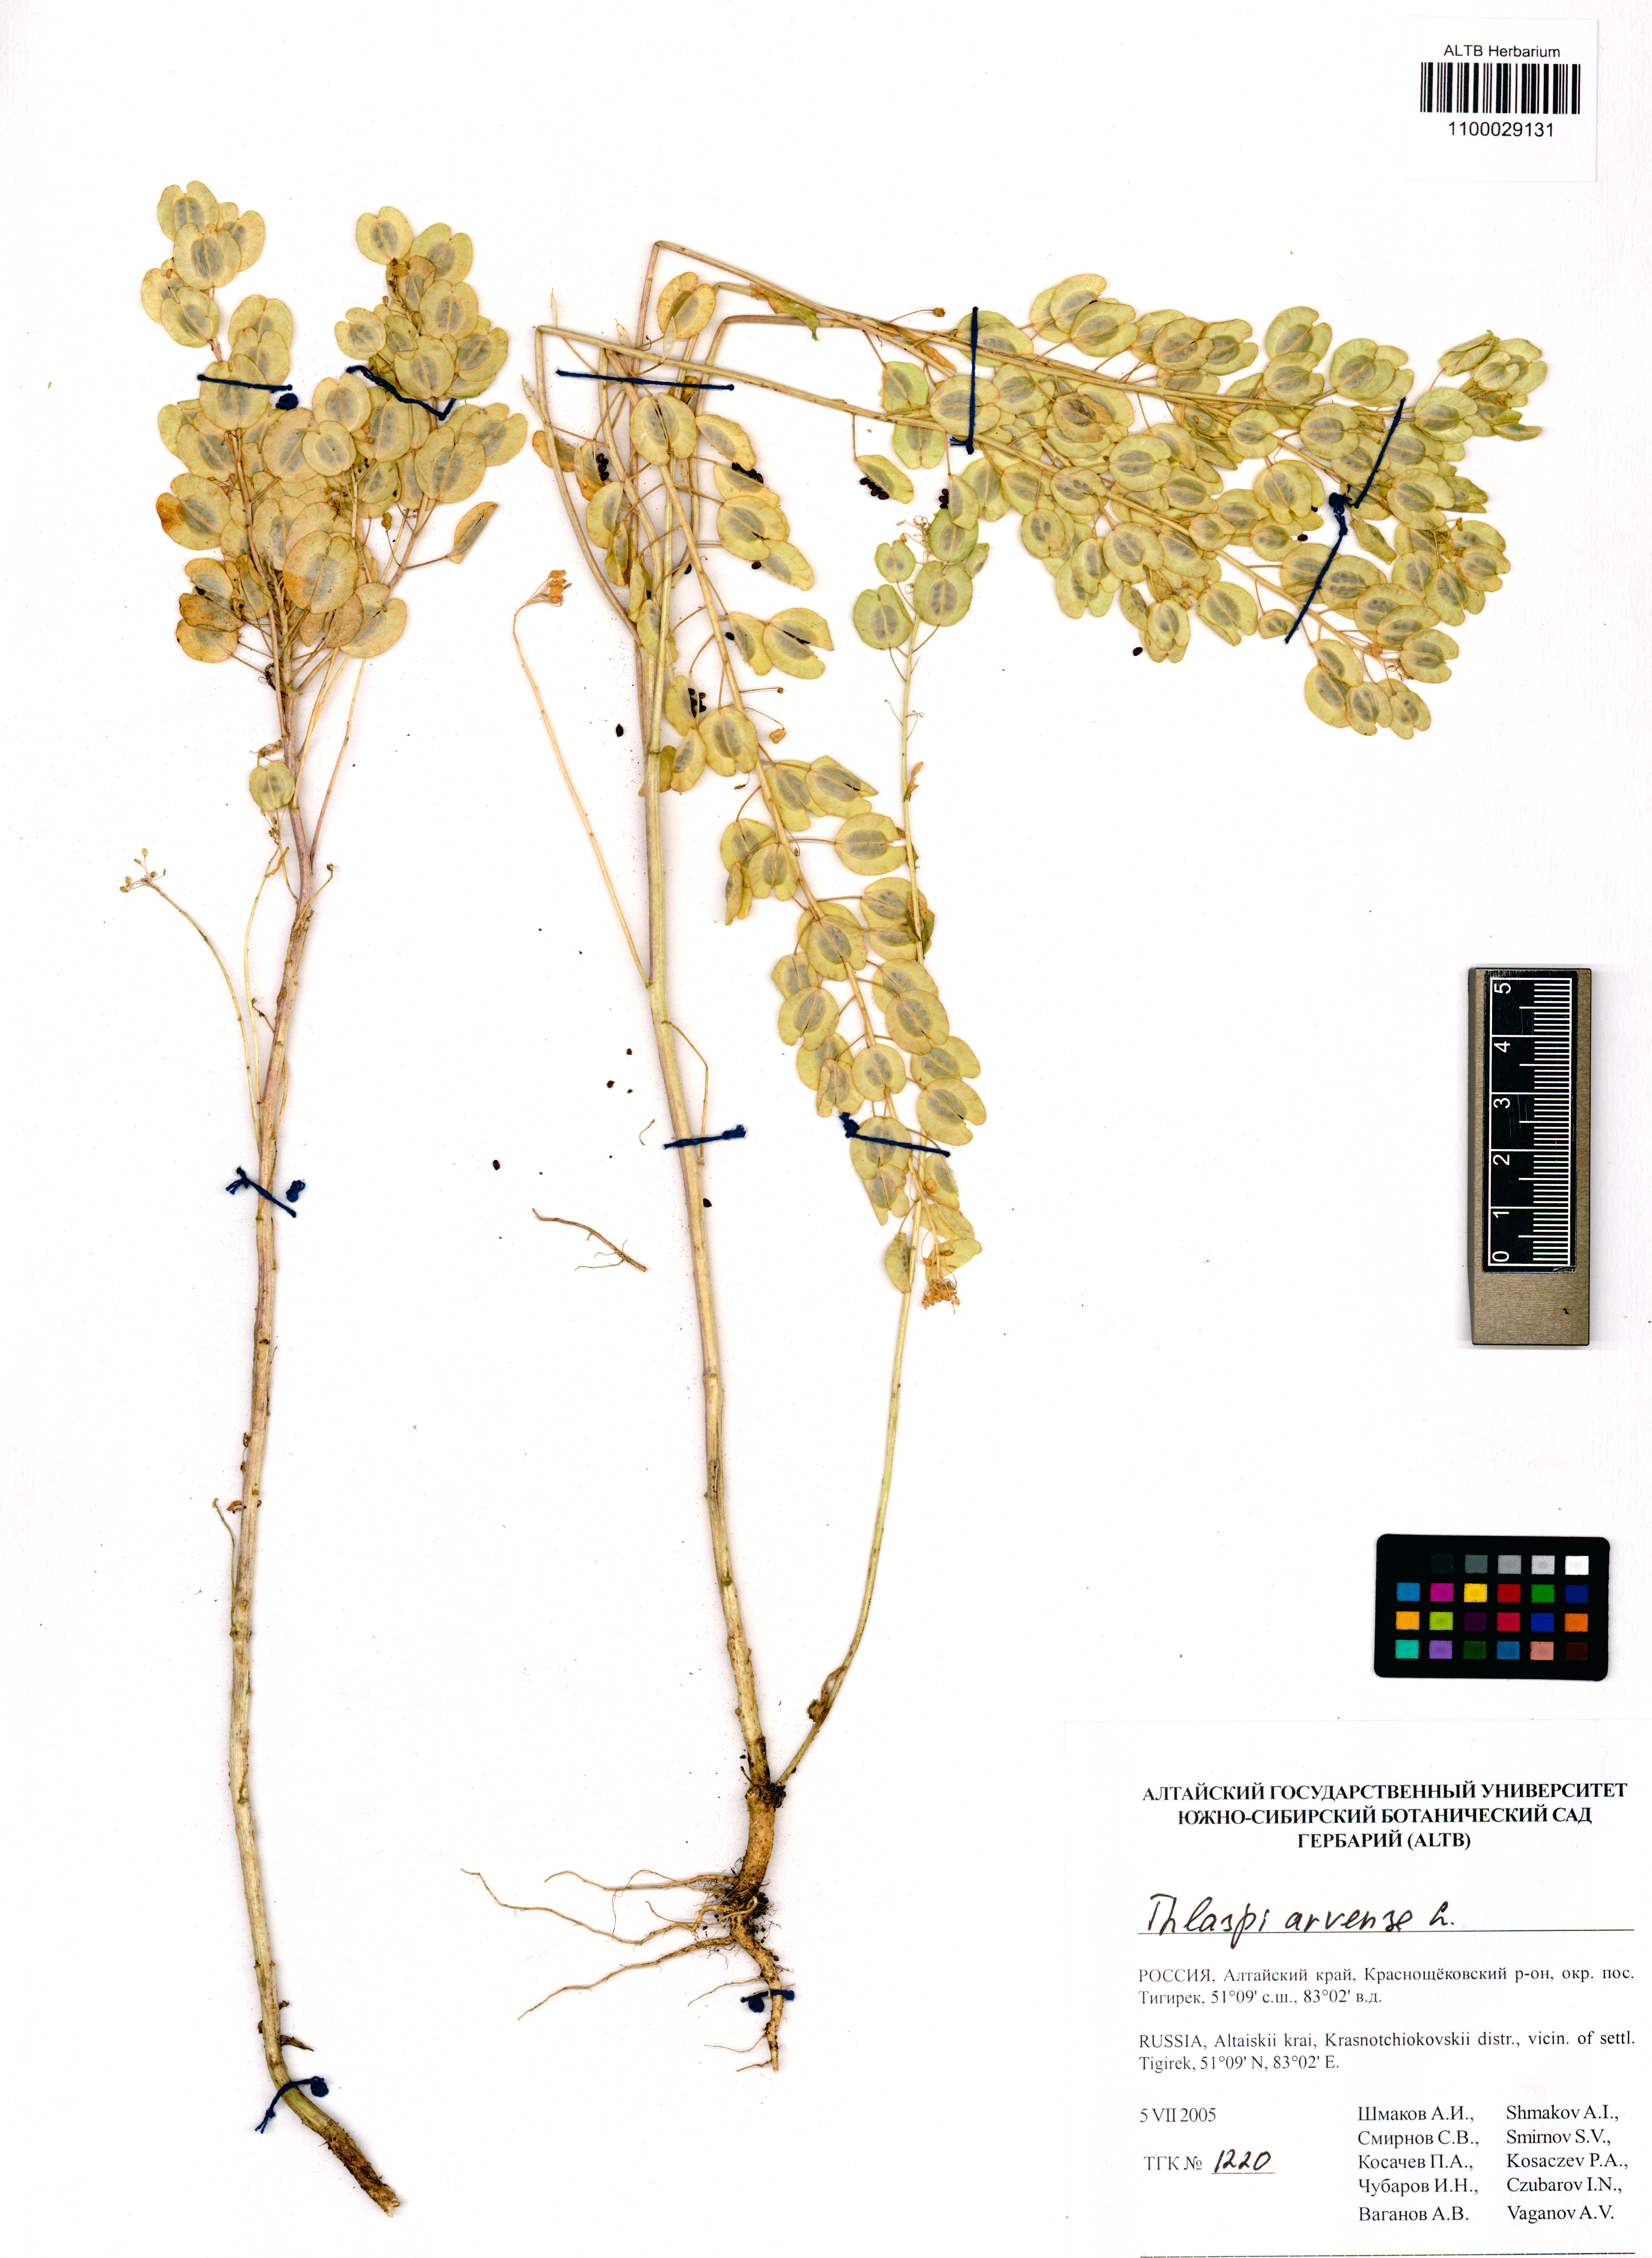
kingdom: Plantae
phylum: Tracheophyta
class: Magnoliopsida
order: Brassicales
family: Brassicaceae
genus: Thlaspi
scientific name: Thlaspi arvense
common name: Field pennycress
